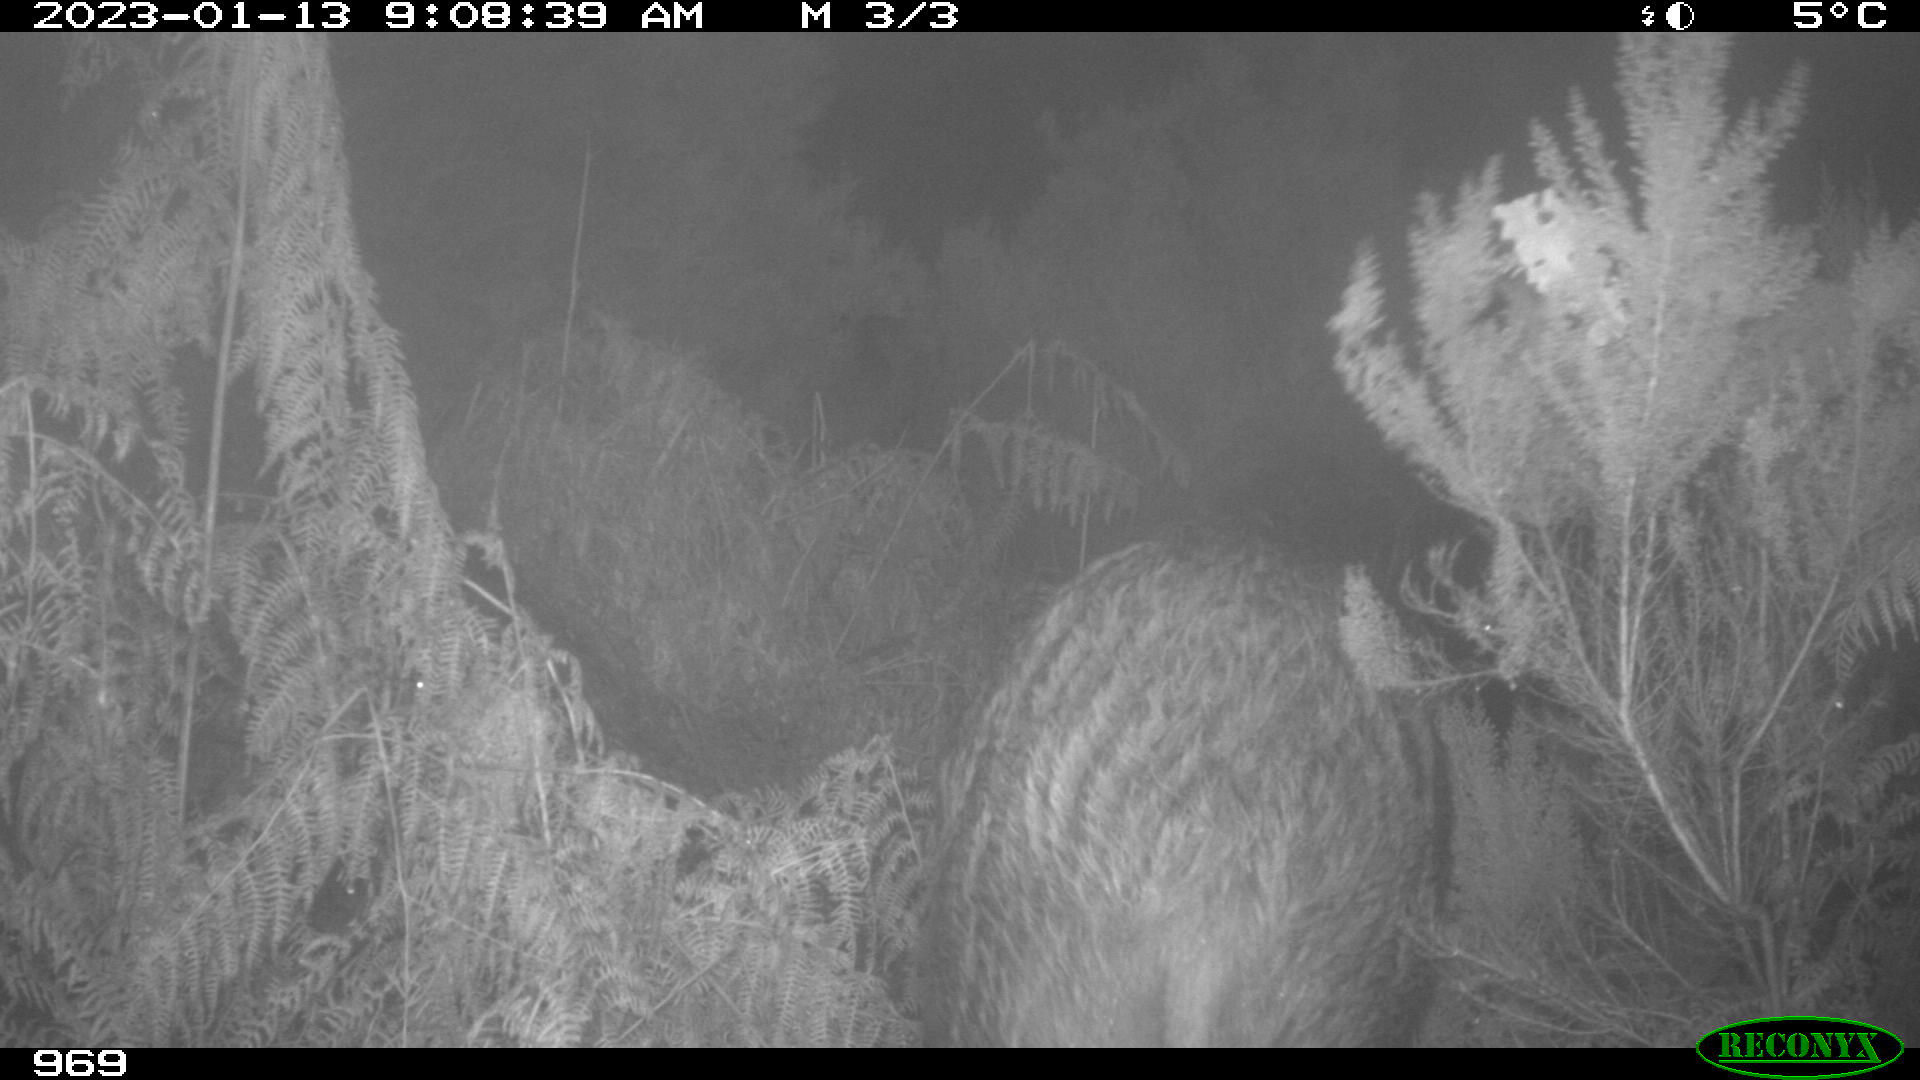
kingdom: Animalia
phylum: Chordata
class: Mammalia
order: Artiodactyla
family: Suidae
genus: Sus
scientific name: Sus scrofa
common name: Wild boar
